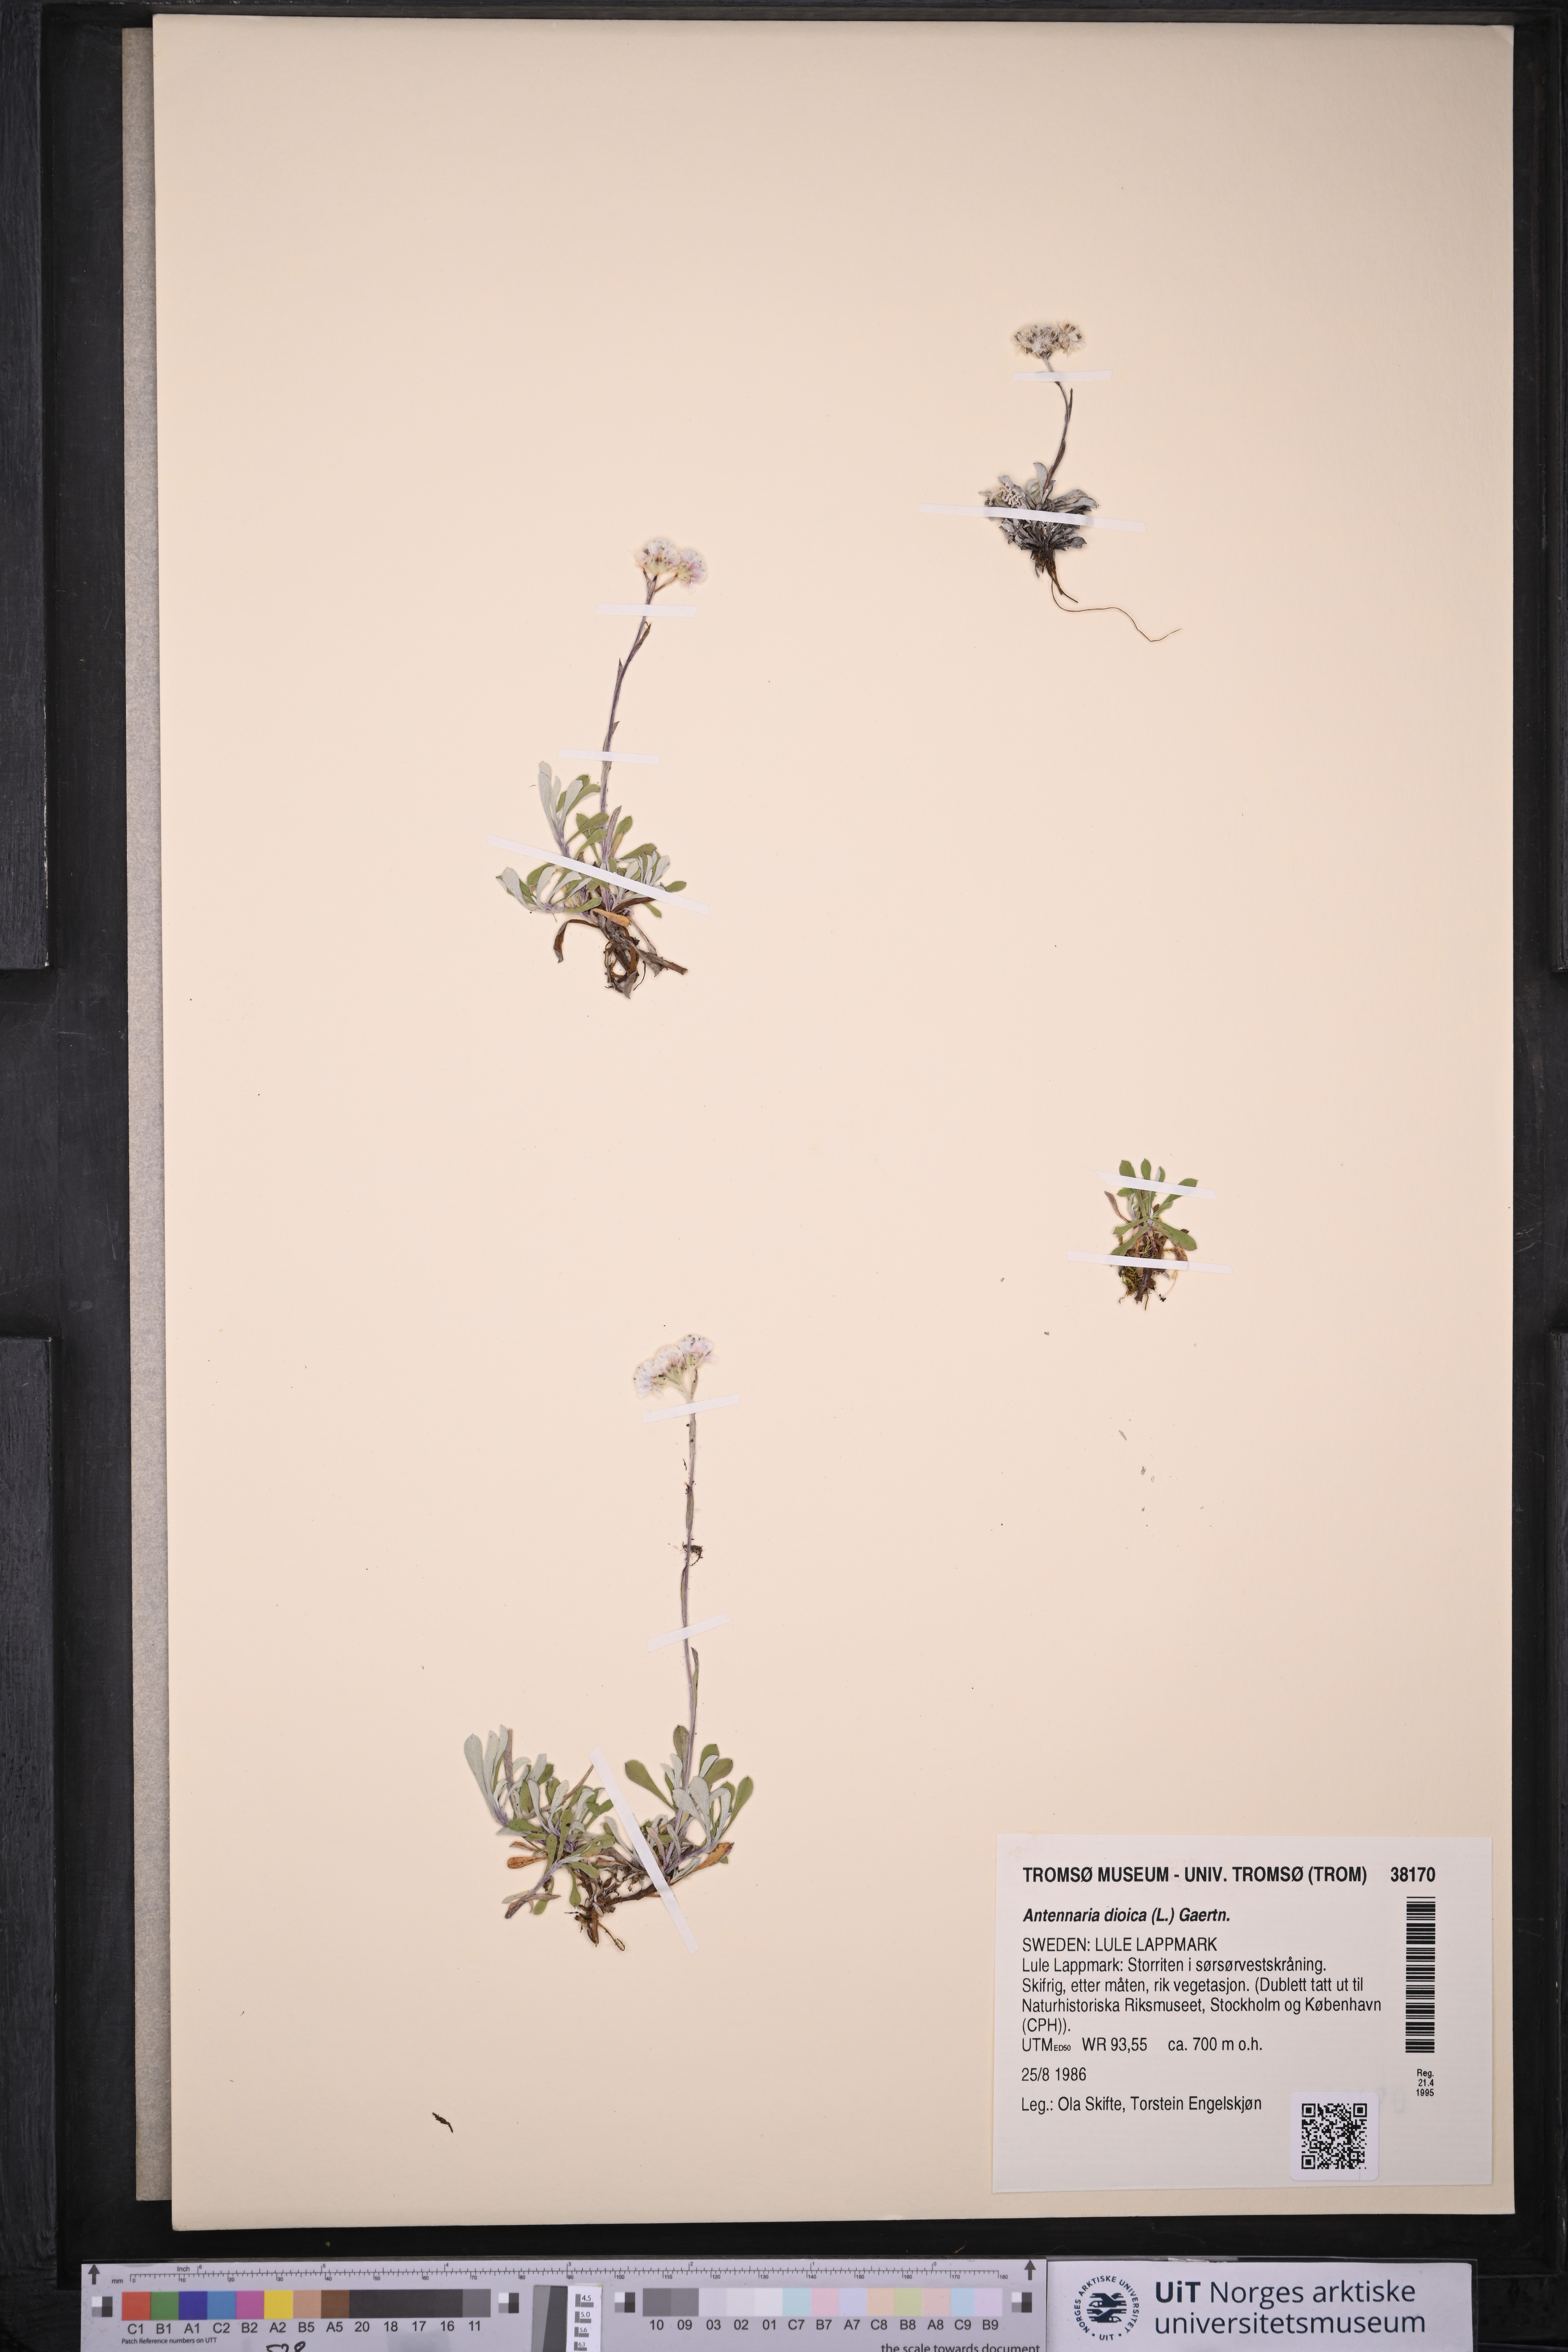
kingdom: Plantae
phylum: Tracheophyta
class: Magnoliopsida
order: Asterales
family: Asteraceae
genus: Antennaria
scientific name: Antennaria dioica
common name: Mountain everlasting
